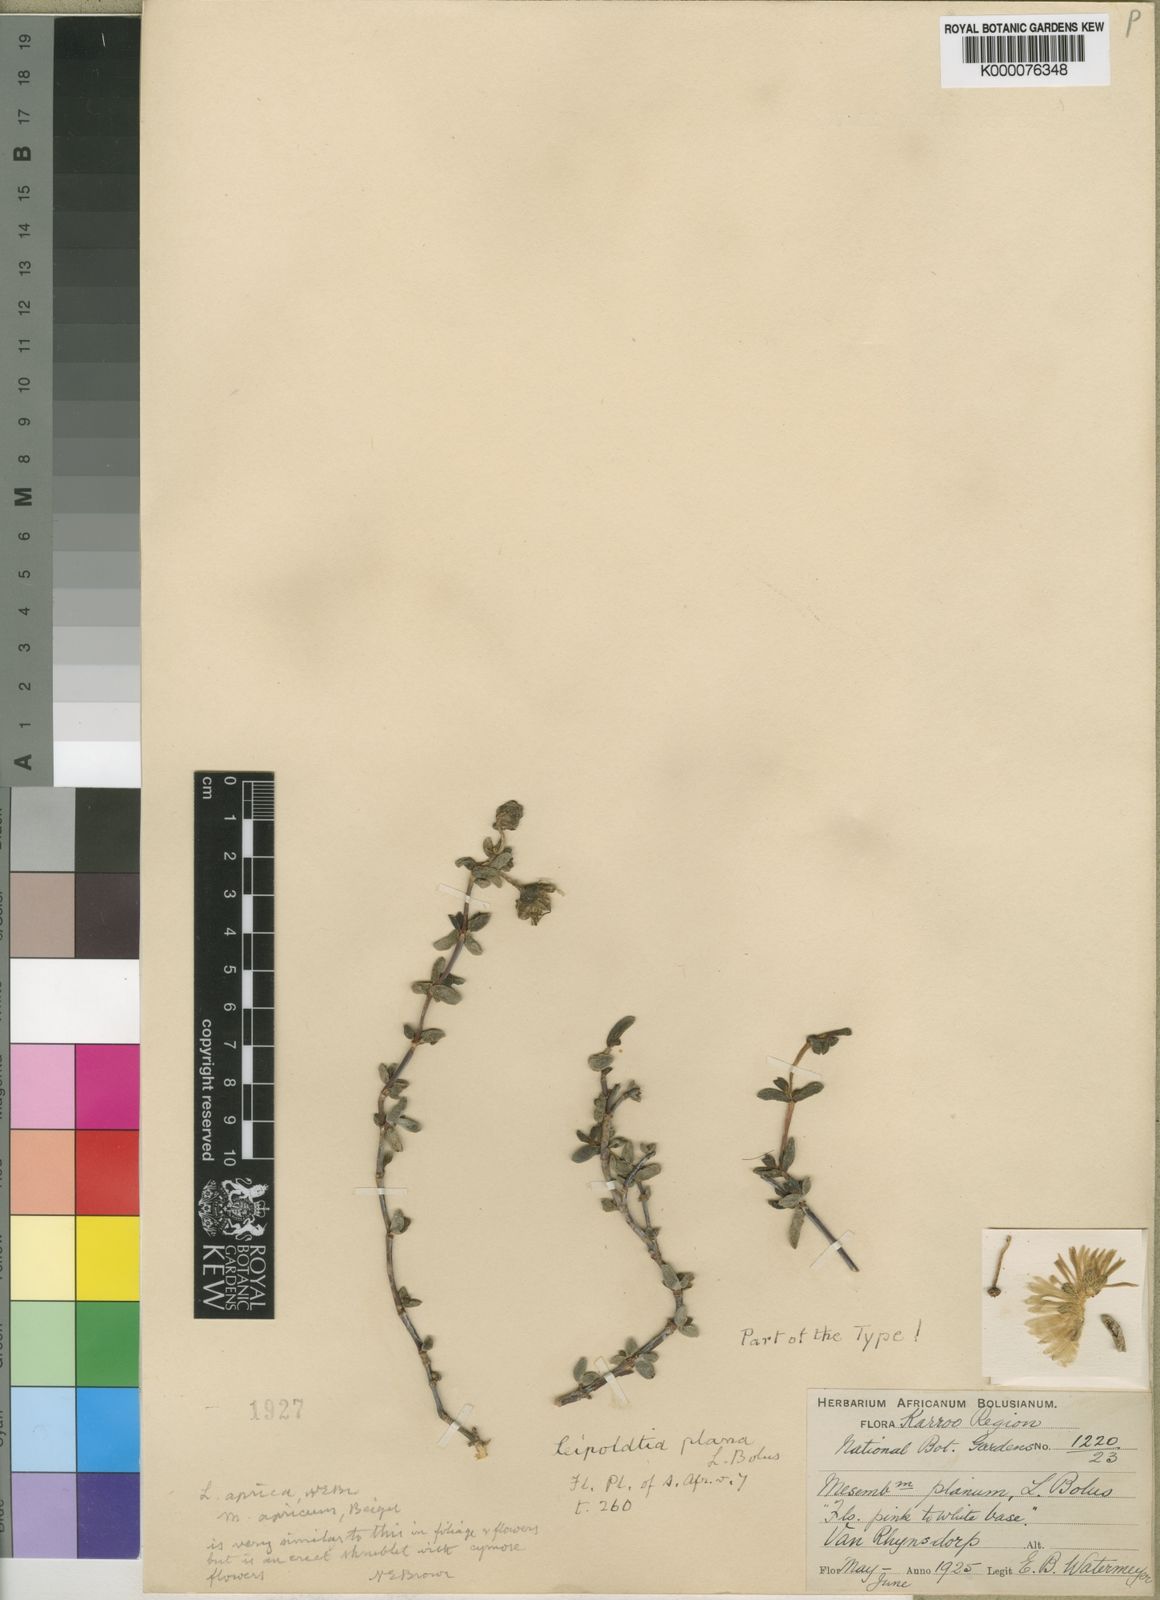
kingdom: Plantae
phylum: Tracheophyta
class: Magnoliopsida
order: Caryophyllales
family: Aizoaceae
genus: Hallianthus
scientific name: Hallianthus planus
